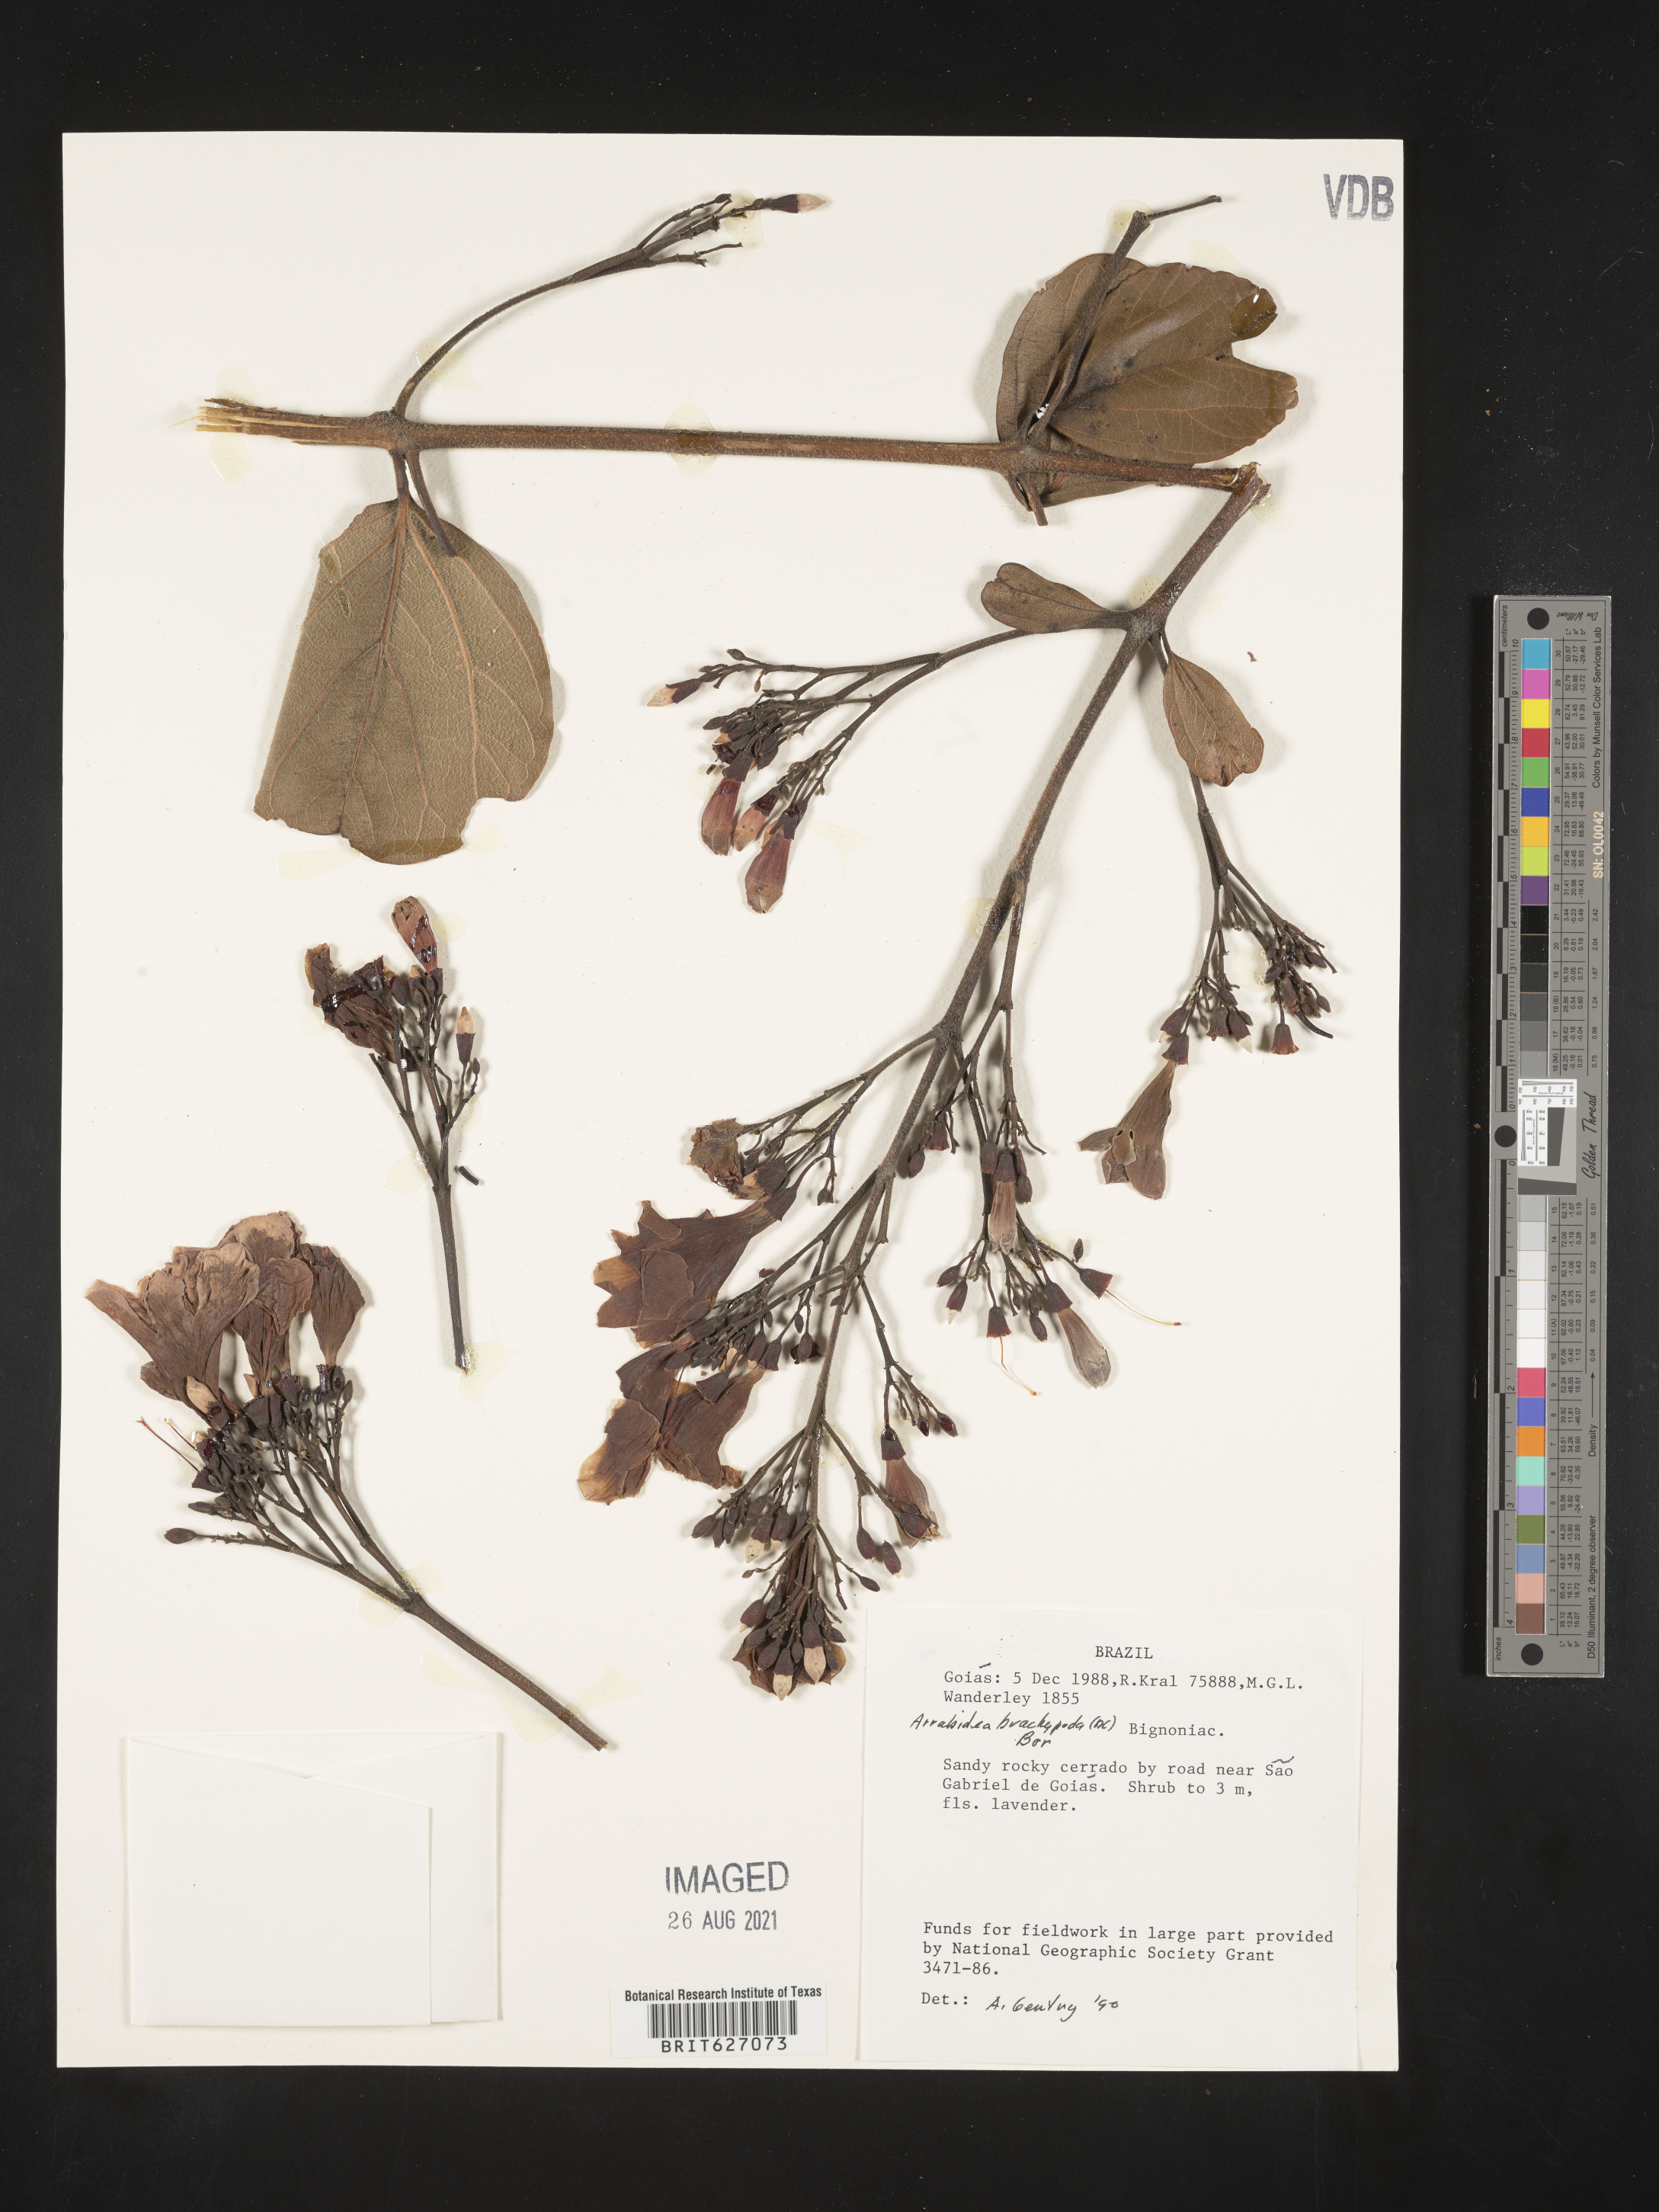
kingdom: Plantae
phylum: Tracheophyta
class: Magnoliopsida
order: Lamiales
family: Bignoniaceae
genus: Fridericia
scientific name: Fridericia platyphylla
